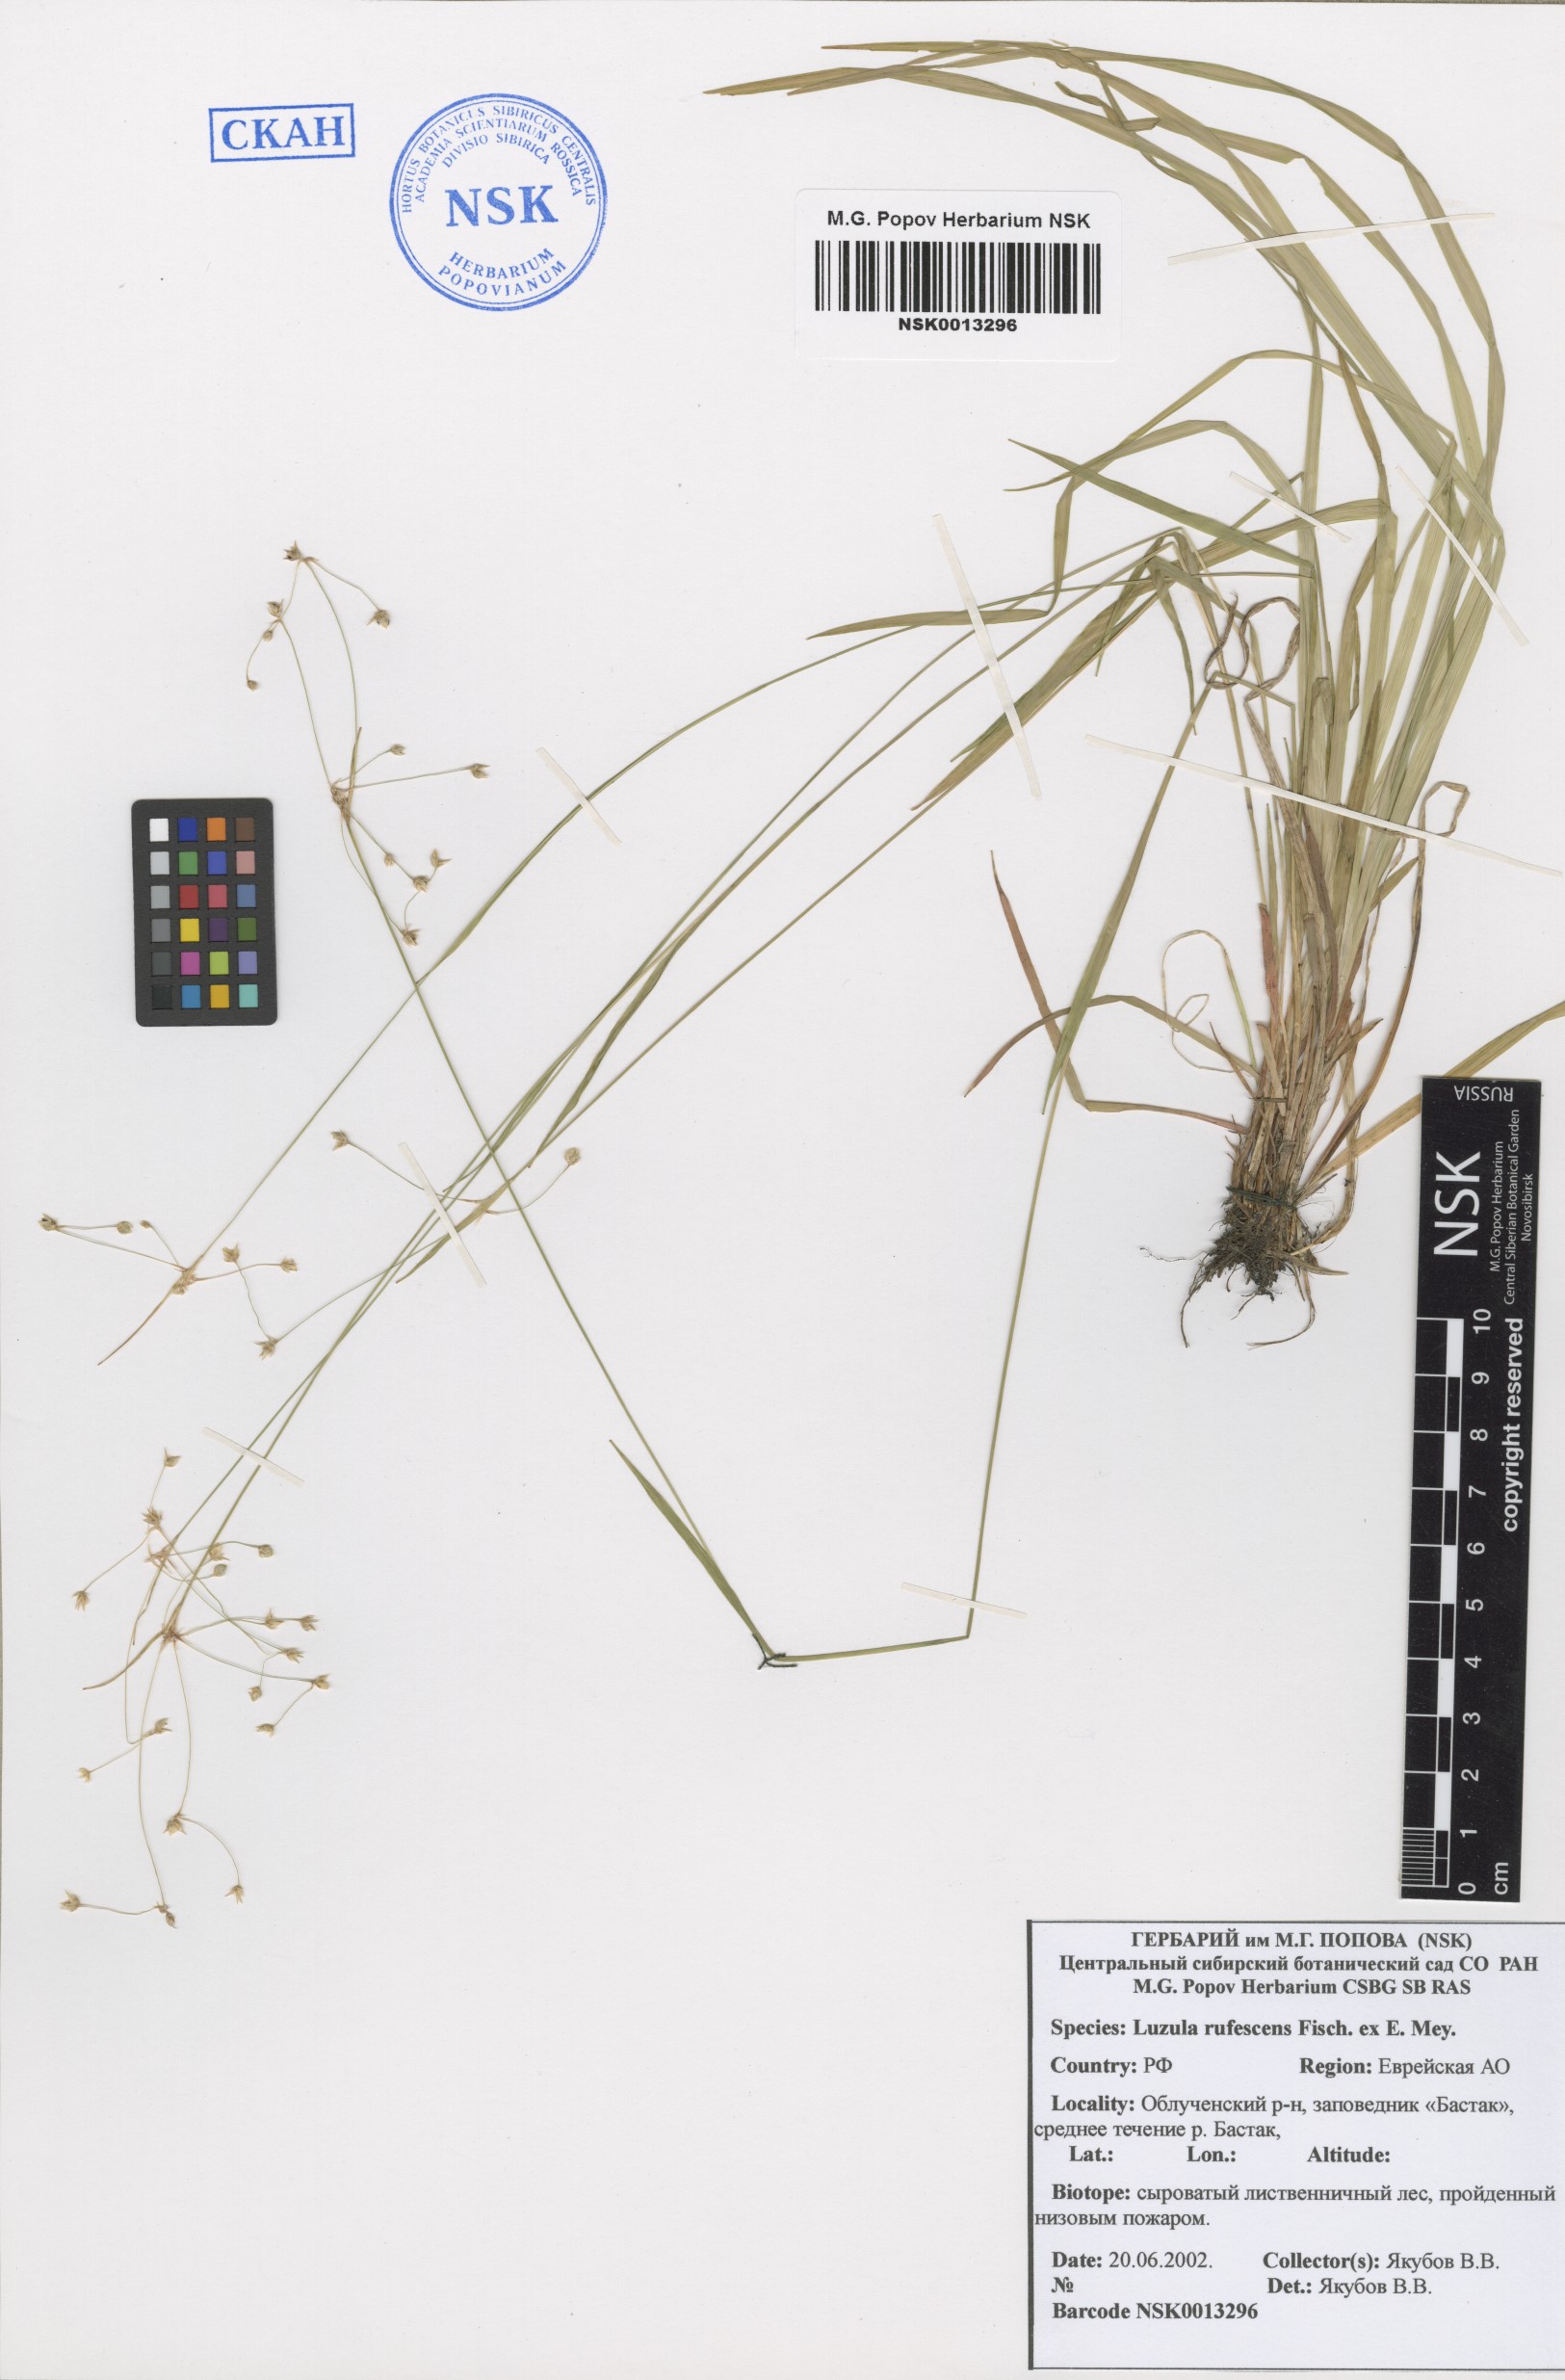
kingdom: Plantae
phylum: Tracheophyta
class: Liliopsida
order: Poales
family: Juncaceae
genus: Luzula
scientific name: Luzula rufescens
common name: Reddish woodrush
